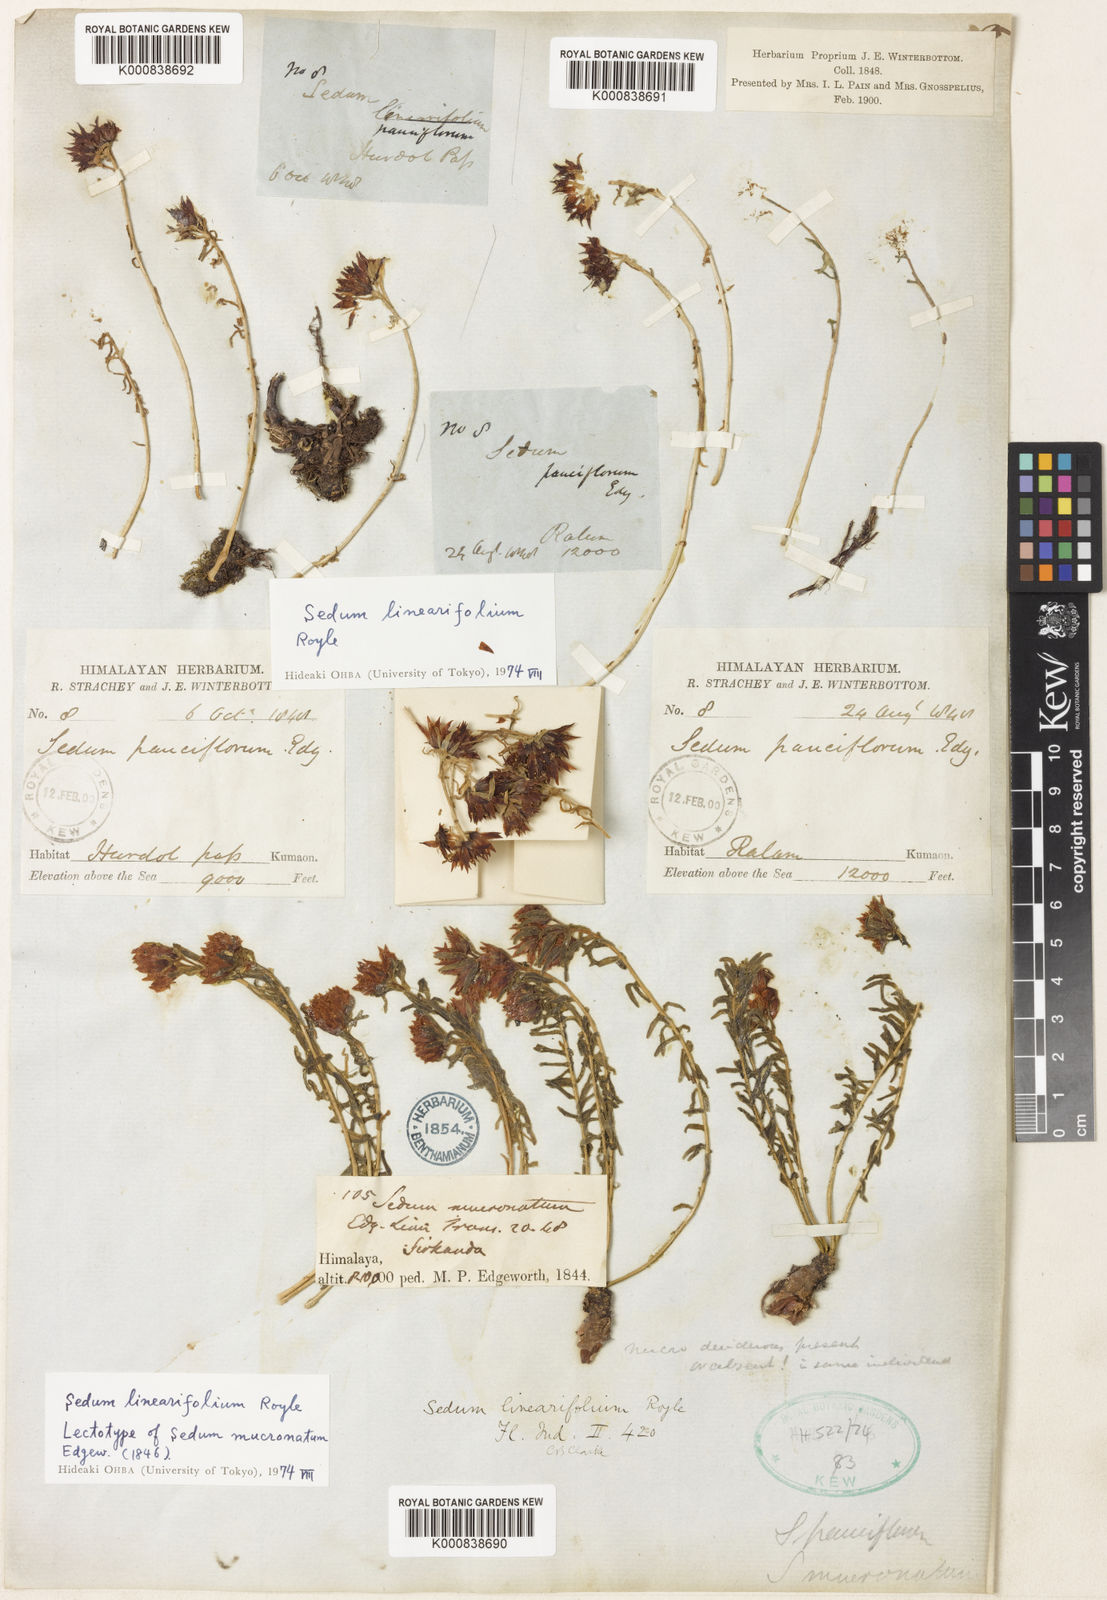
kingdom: Plantae
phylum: Tracheophyta
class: Magnoliopsida
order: Saxifragales
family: Crassulaceae
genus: Rhodiola
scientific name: Rhodiola sinuata
